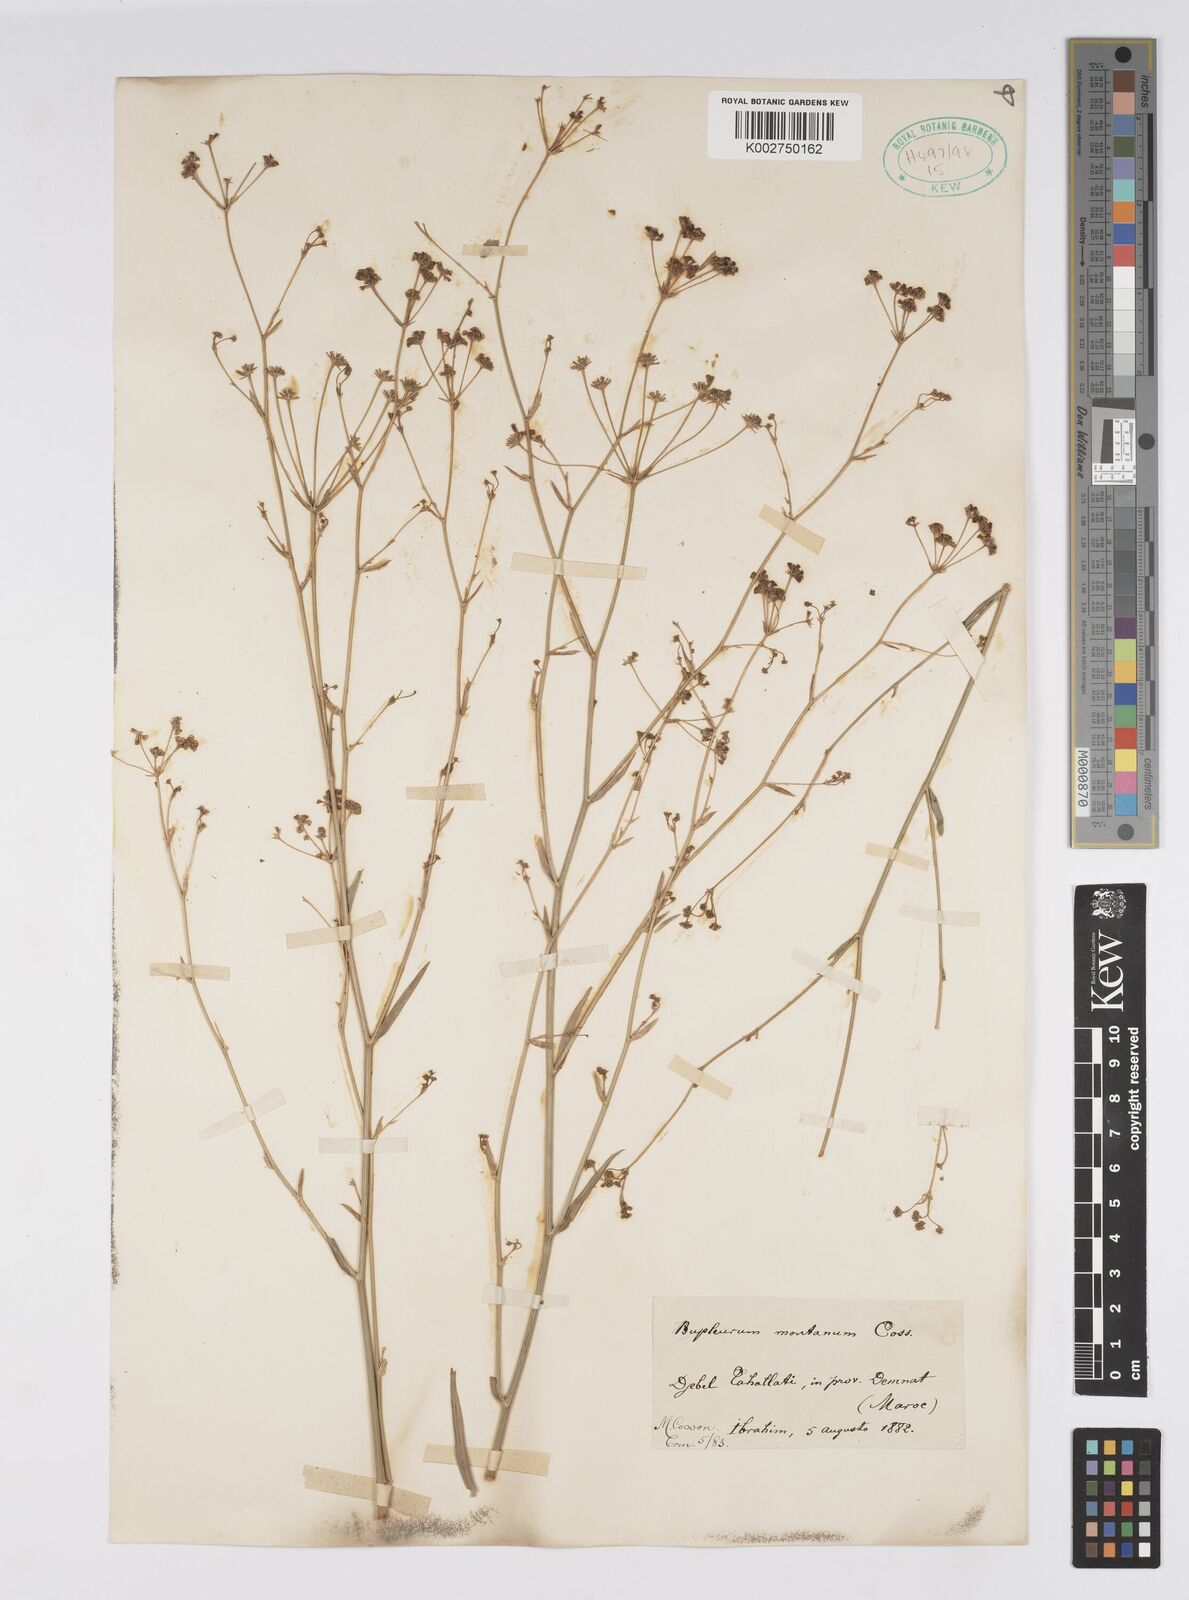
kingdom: Plantae
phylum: Tracheophyta
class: Magnoliopsida
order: Apiales
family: Apiaceae
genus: Bupleurum
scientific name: Bupleurum montanum
